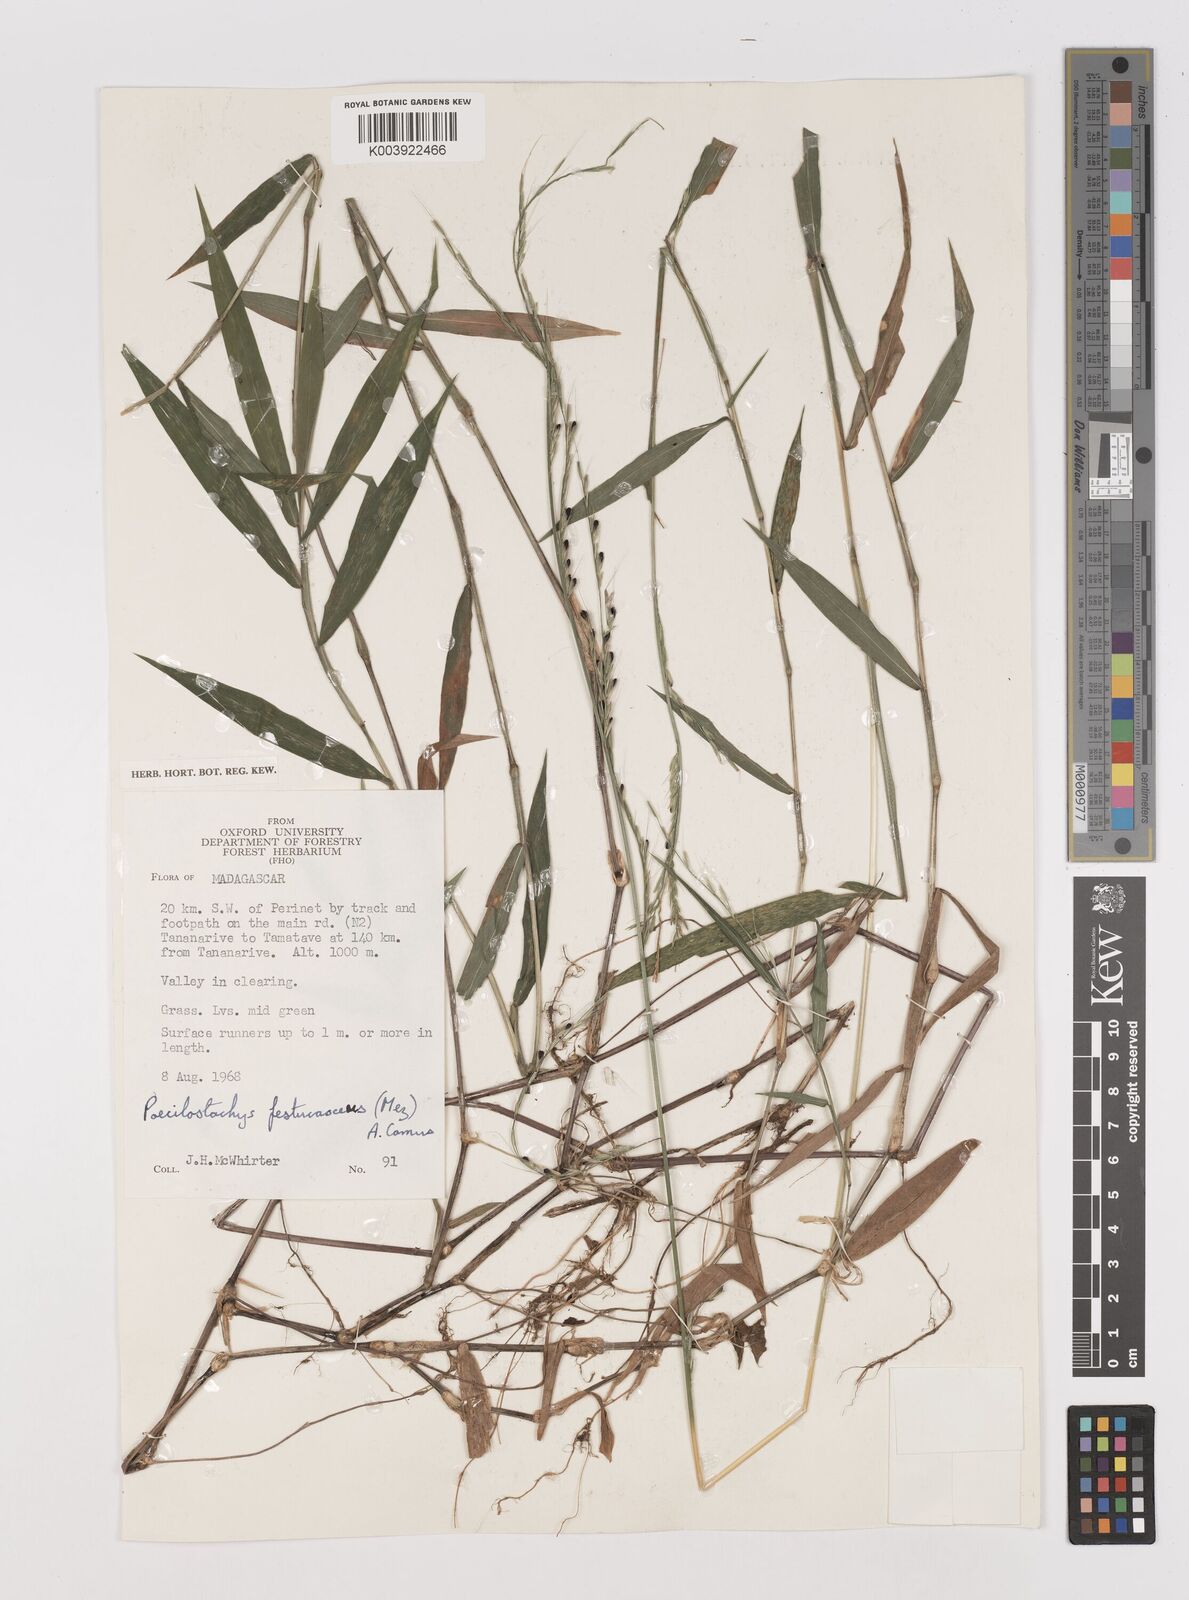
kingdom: Plantae
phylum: Tracheophyta
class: Liliopsida
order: Poales
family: Poaceae
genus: Poecilostachys
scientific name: Poecilostachys baronis
